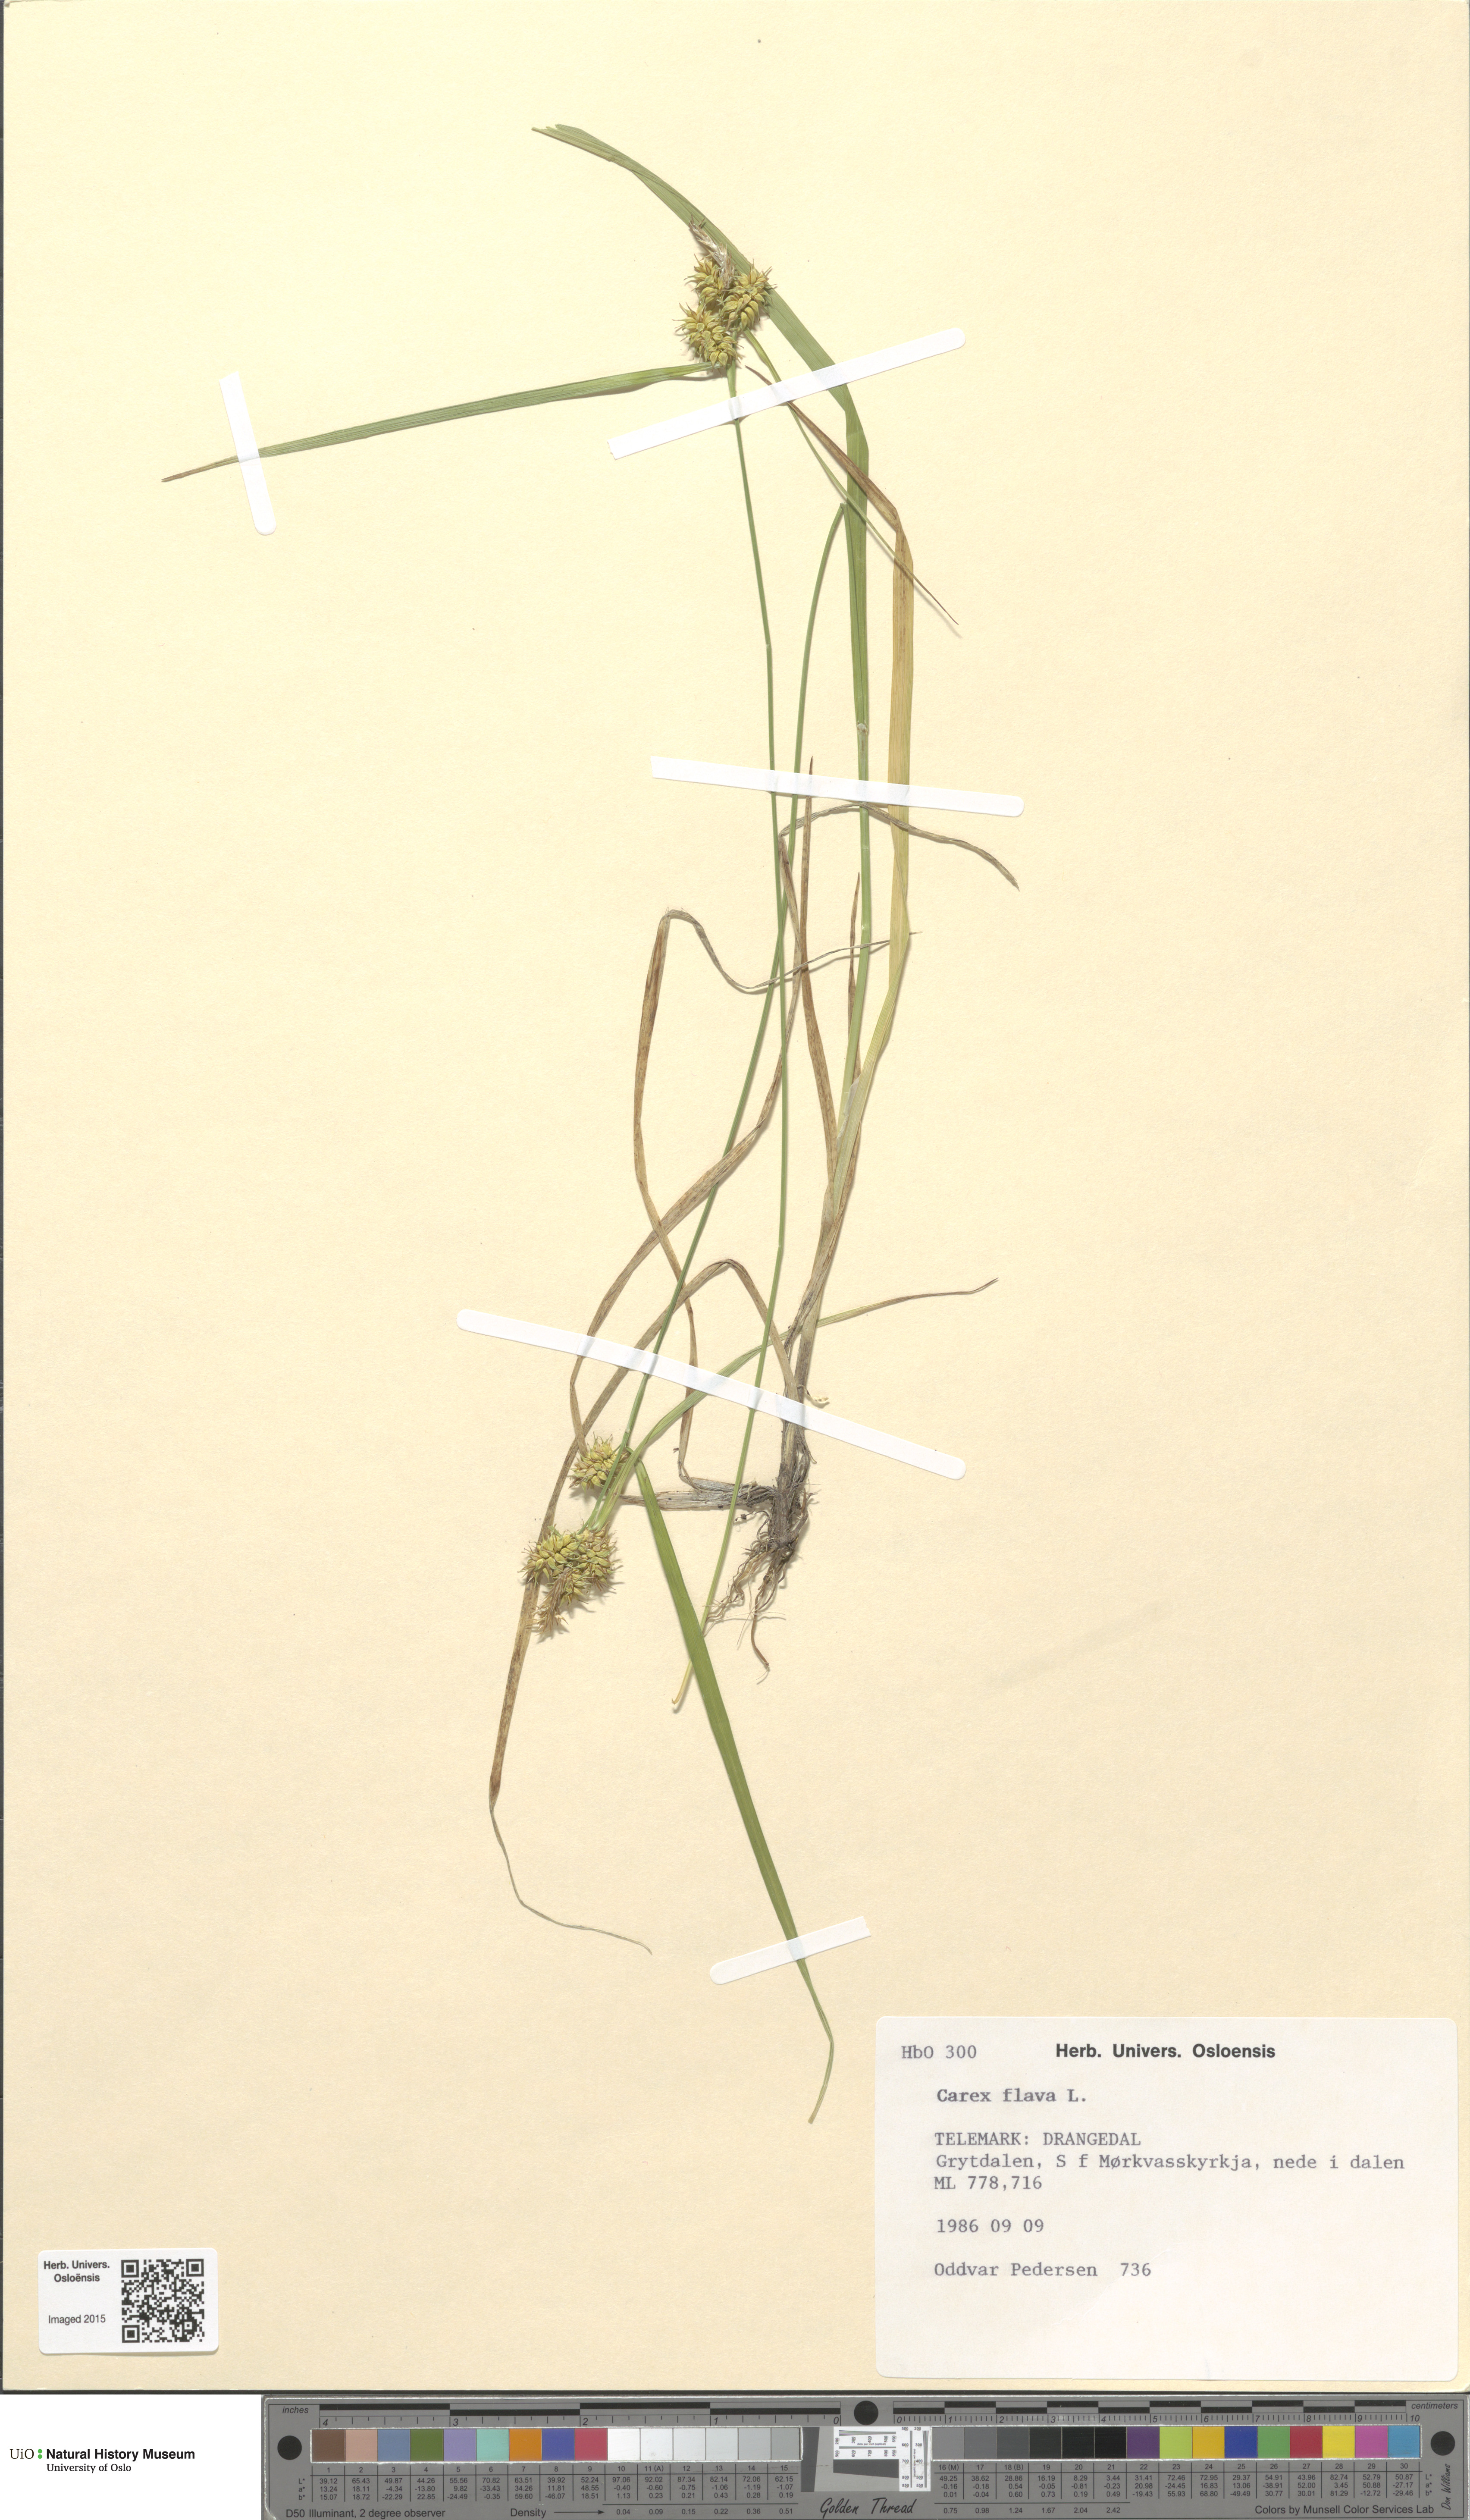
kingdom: Plantae
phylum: Tracheophyta
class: Liliopsida
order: Poales
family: Cyperaceae
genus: Carex
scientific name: Carex flava
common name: Large yellow-sedge
